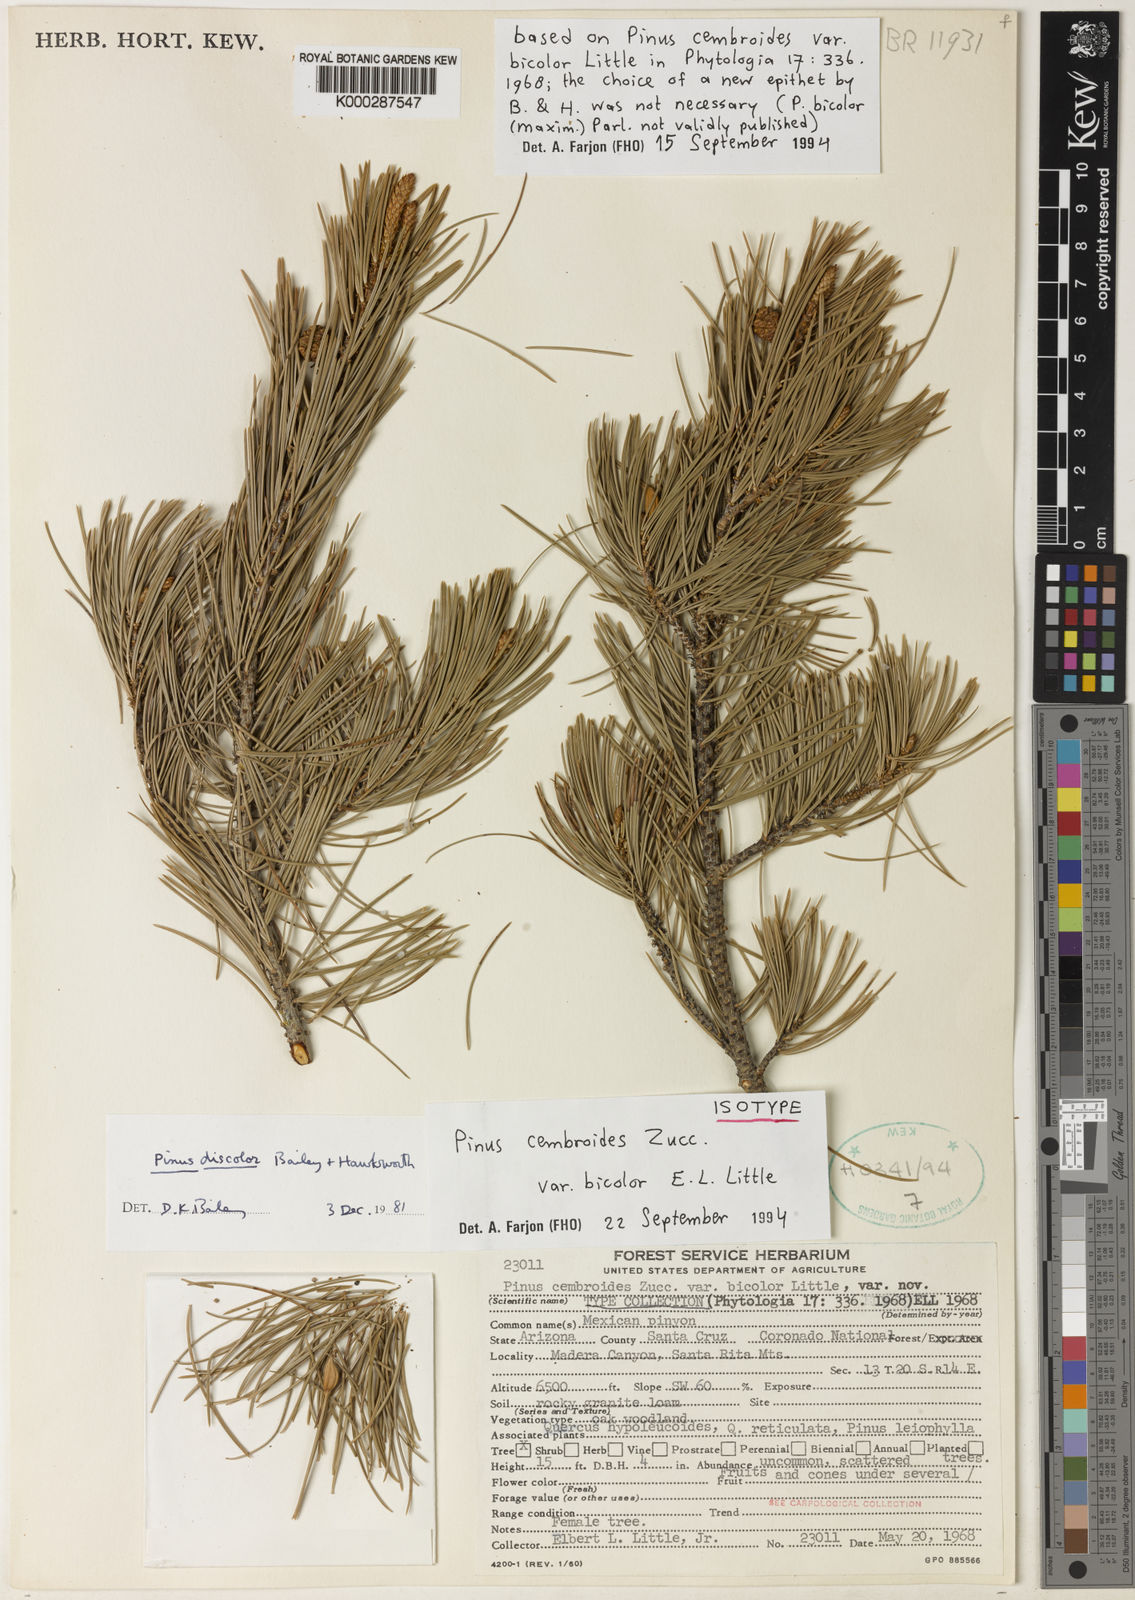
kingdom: Plantae
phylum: Tracheophyta
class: Pinopsida
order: Pinales
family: Pinaceae
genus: Pinus
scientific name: Pinus cembroides
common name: Mexican nut pine
